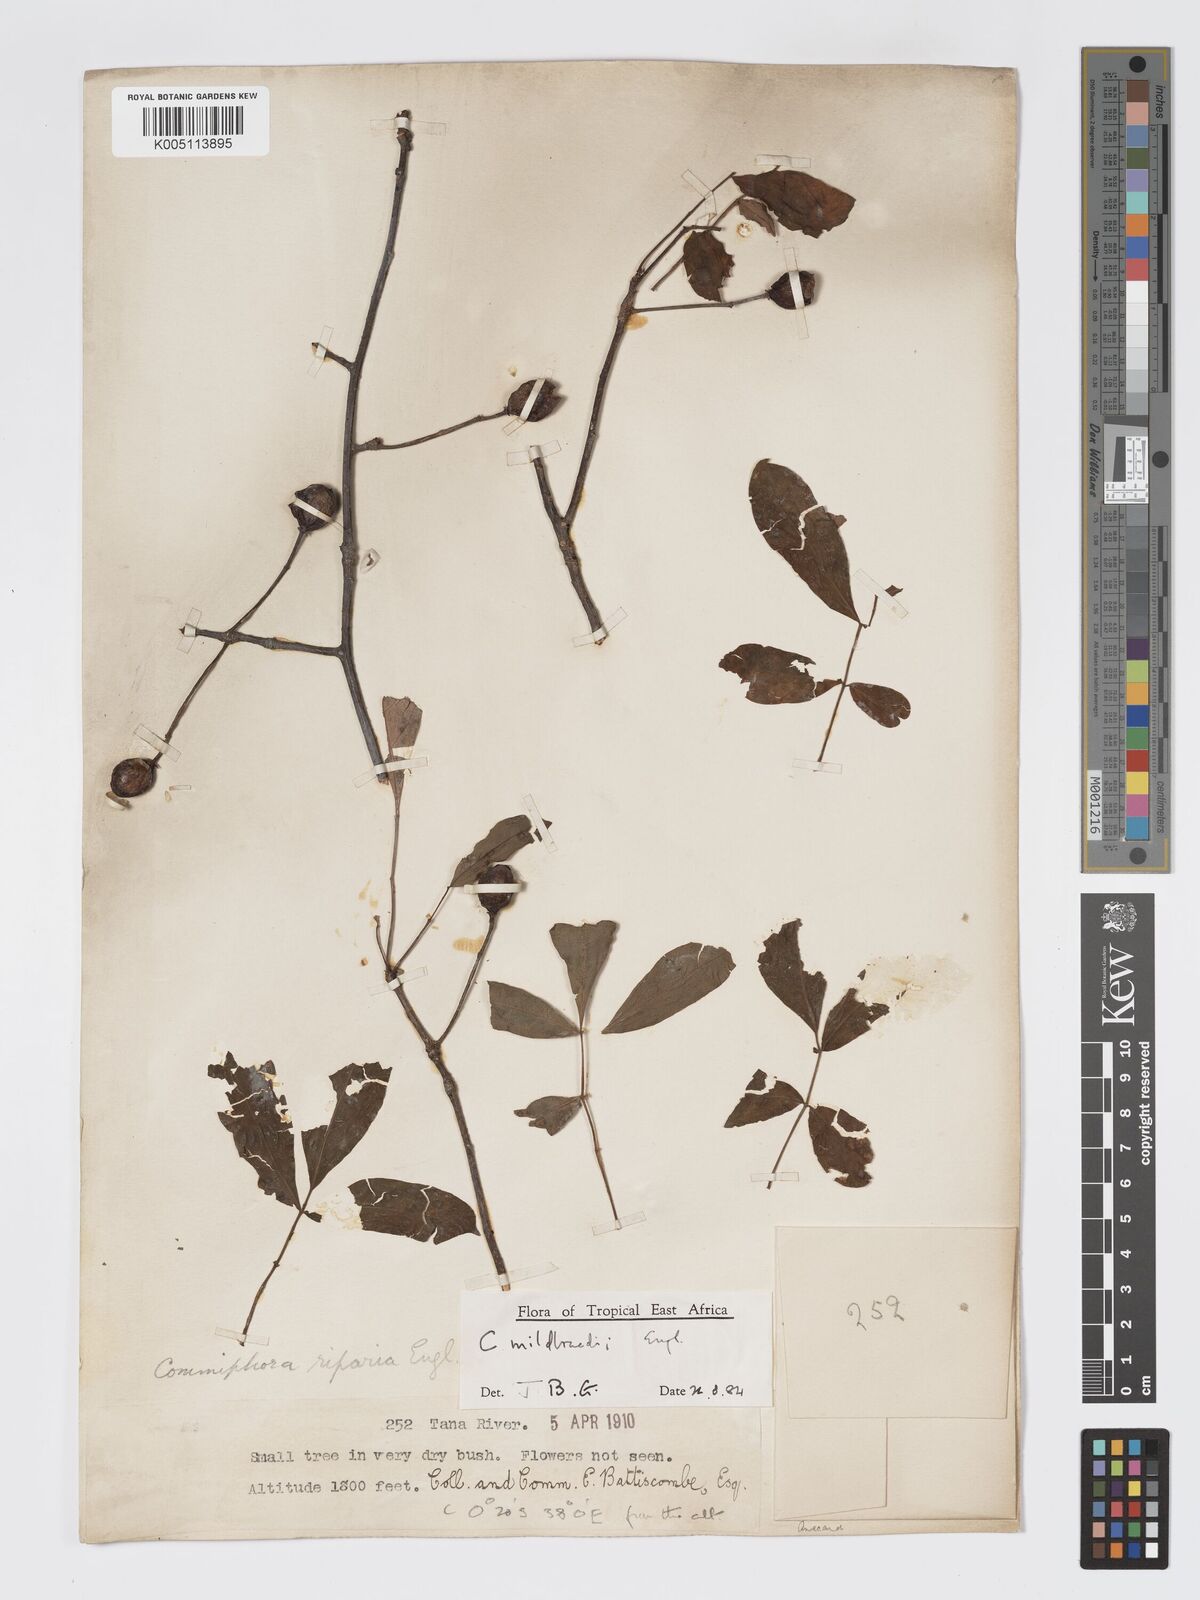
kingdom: Plantae
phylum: Tracheophyta
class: Magnoliopsida
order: Sapindales
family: Burseraceae
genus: Commiphora
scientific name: Commiphora mildbraedii
